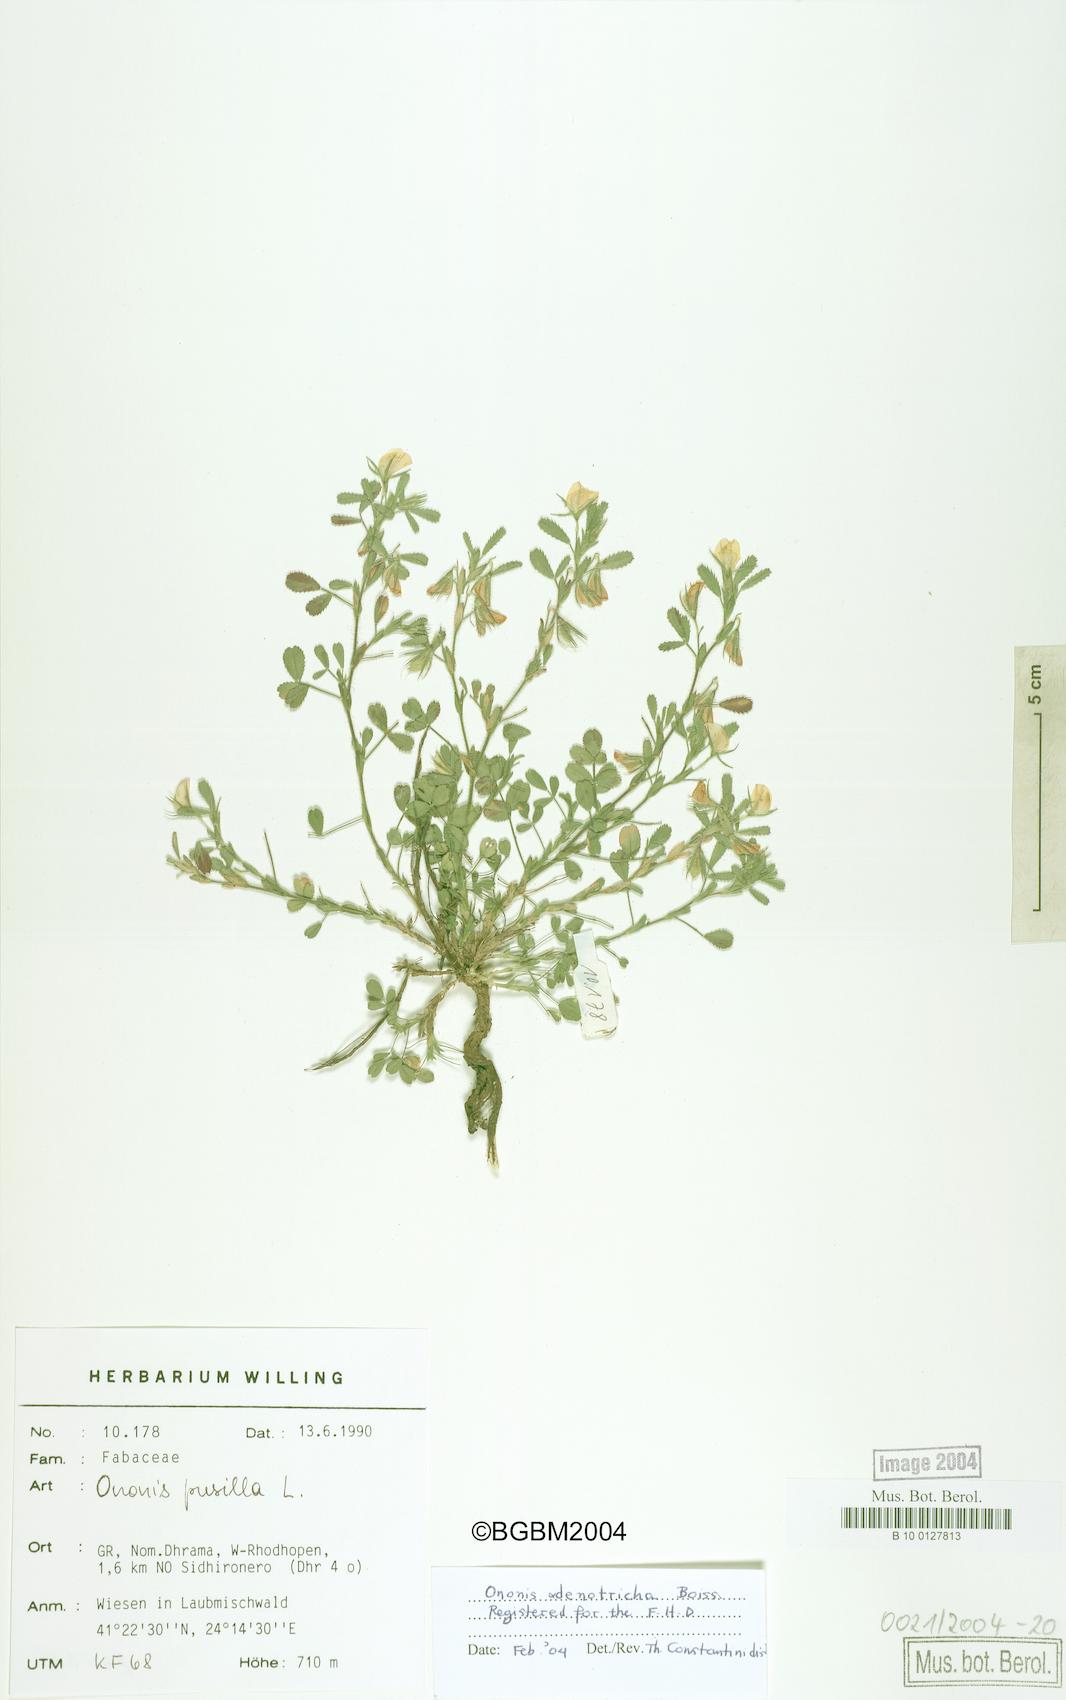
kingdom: Plantae
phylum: Tracheophyta
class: Magnoliopsida
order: Fabales
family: Fabaceae
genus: Ononis
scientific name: Ononis adenotricha
